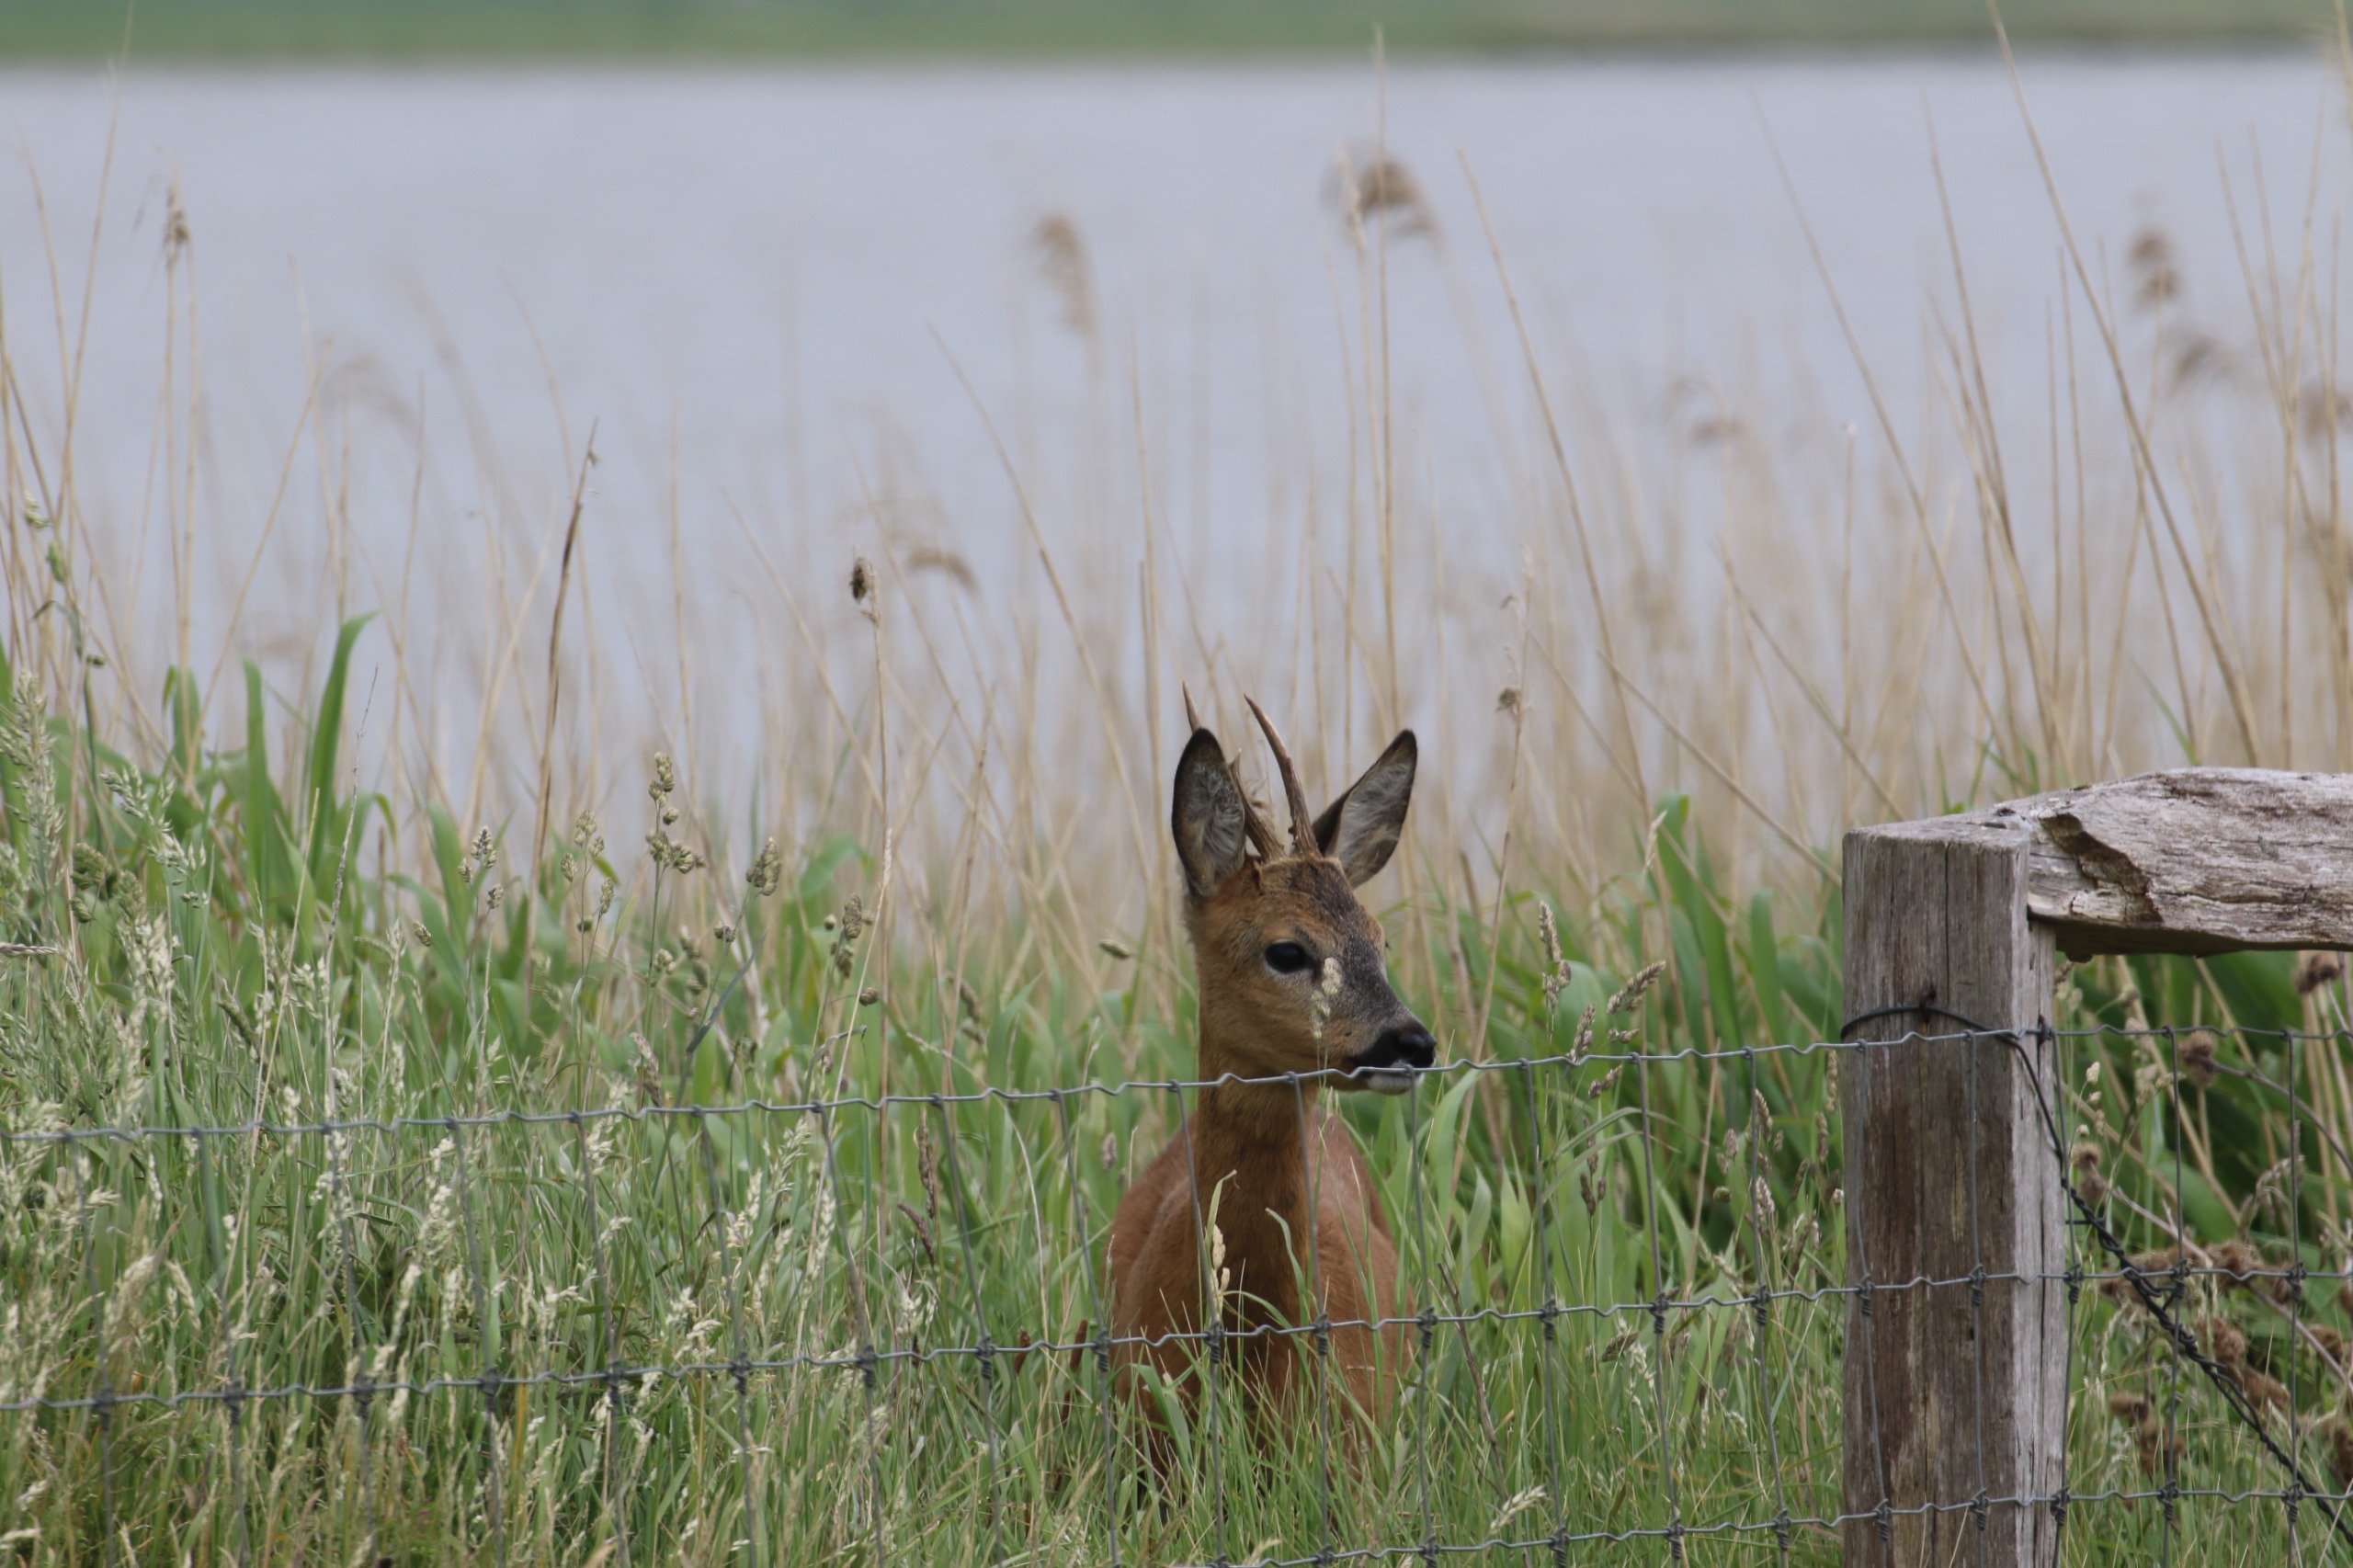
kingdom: Animalia
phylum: Chordata
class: Mammalia
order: Artiodactyla
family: Cervidae
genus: Capreolus
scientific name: Capreolus capreolus
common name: Rådyr
